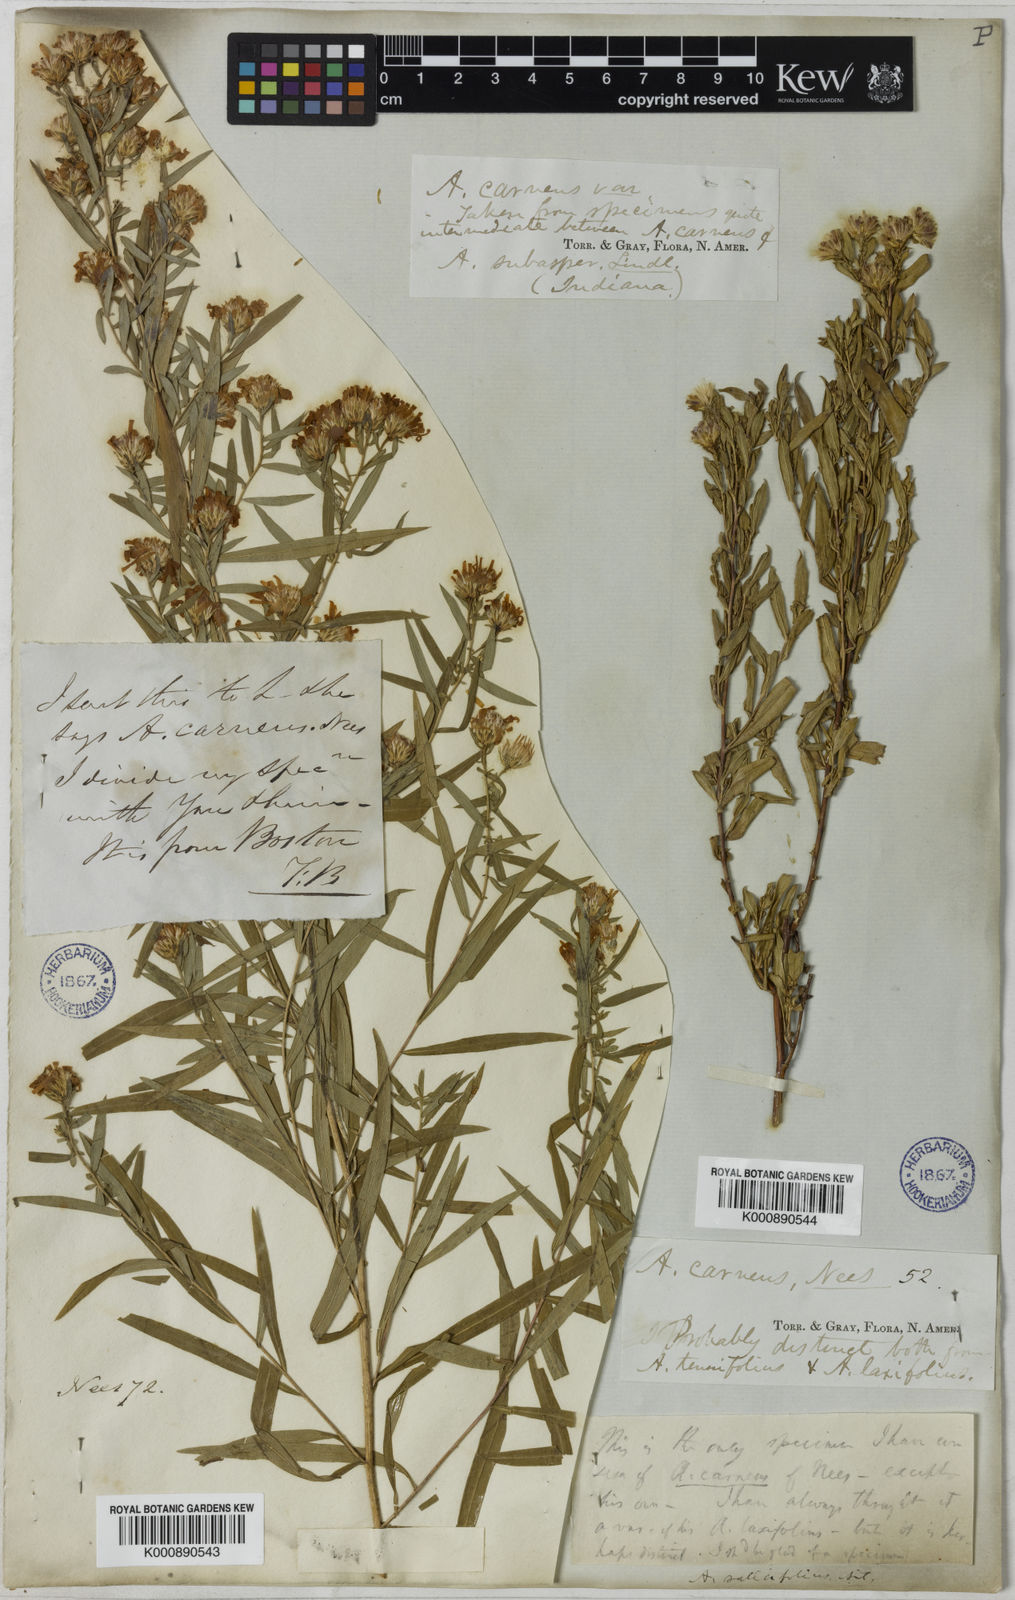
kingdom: Plantae
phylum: Tracheophyta
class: Magnoliopsida
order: Asterales
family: Asteraceae
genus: Symphyotrichum
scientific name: Symphyotrichum praealtum
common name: Willow aster
